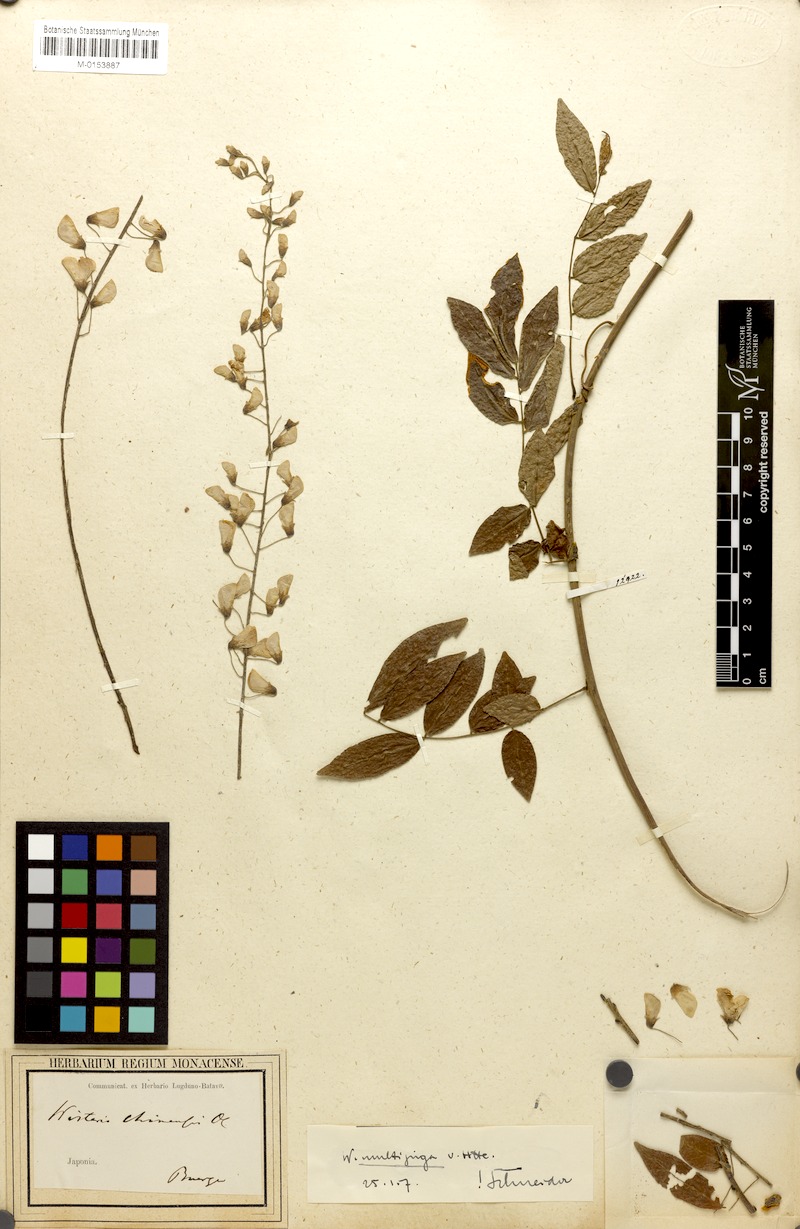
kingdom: Plantae
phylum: Tracheophyta
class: Magnoliopsida
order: Fabales
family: Fabaceae
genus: Wisteria
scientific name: Wisteria floribunda
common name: Japanese wisteria
